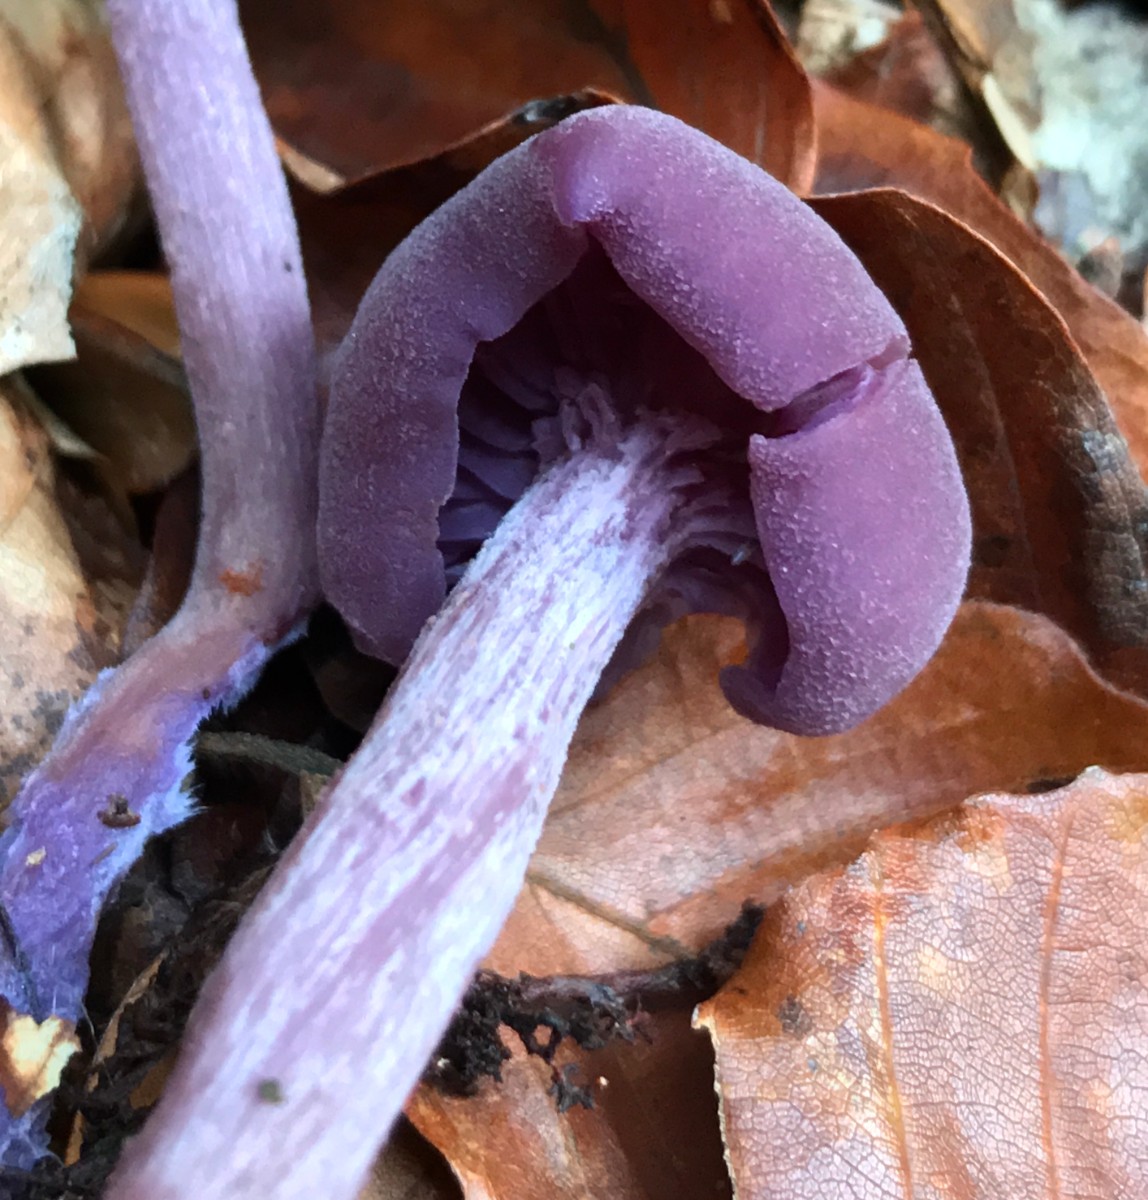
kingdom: Fungi
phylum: Basidiomycota
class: Agaricomycetes
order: Agaricales
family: Hydnangiaceae
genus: Laccaria
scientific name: Laccaria amethystina
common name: violet ametysthat
